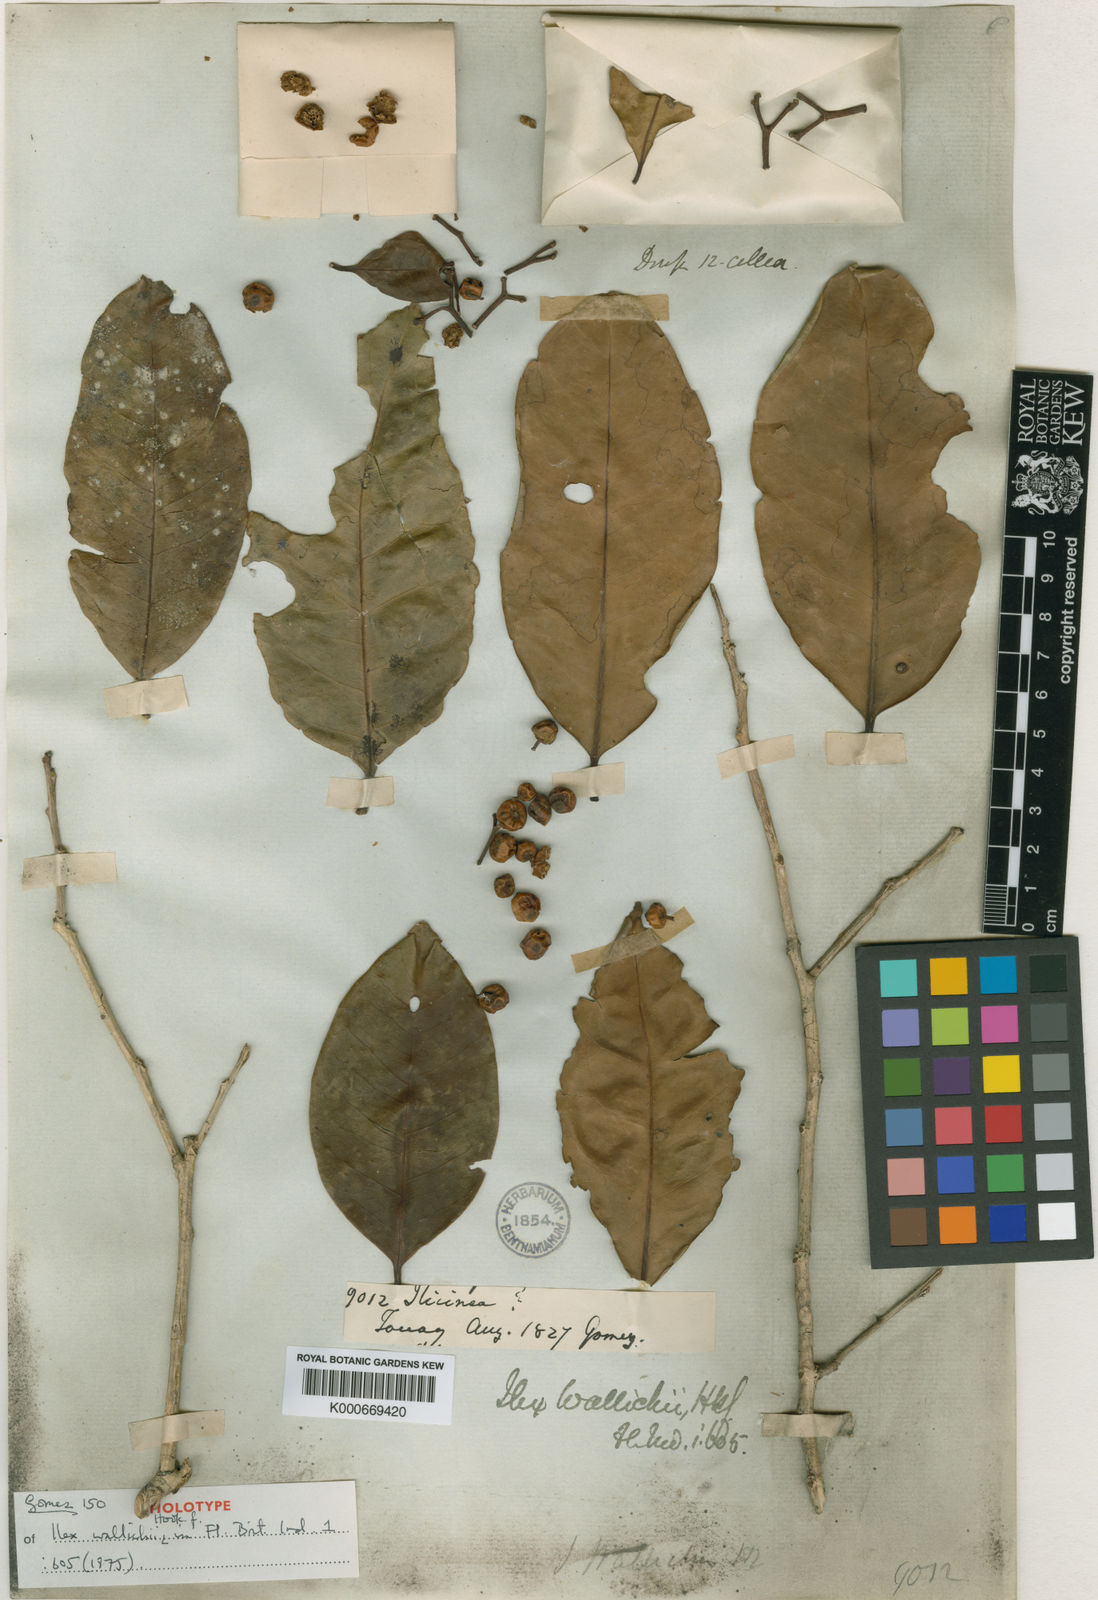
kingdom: Plantae
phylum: Tracheophyta
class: Magnoliopsida
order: Aquifoliales
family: Aquifoliaceae
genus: Ilex
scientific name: Ilex wallichii
